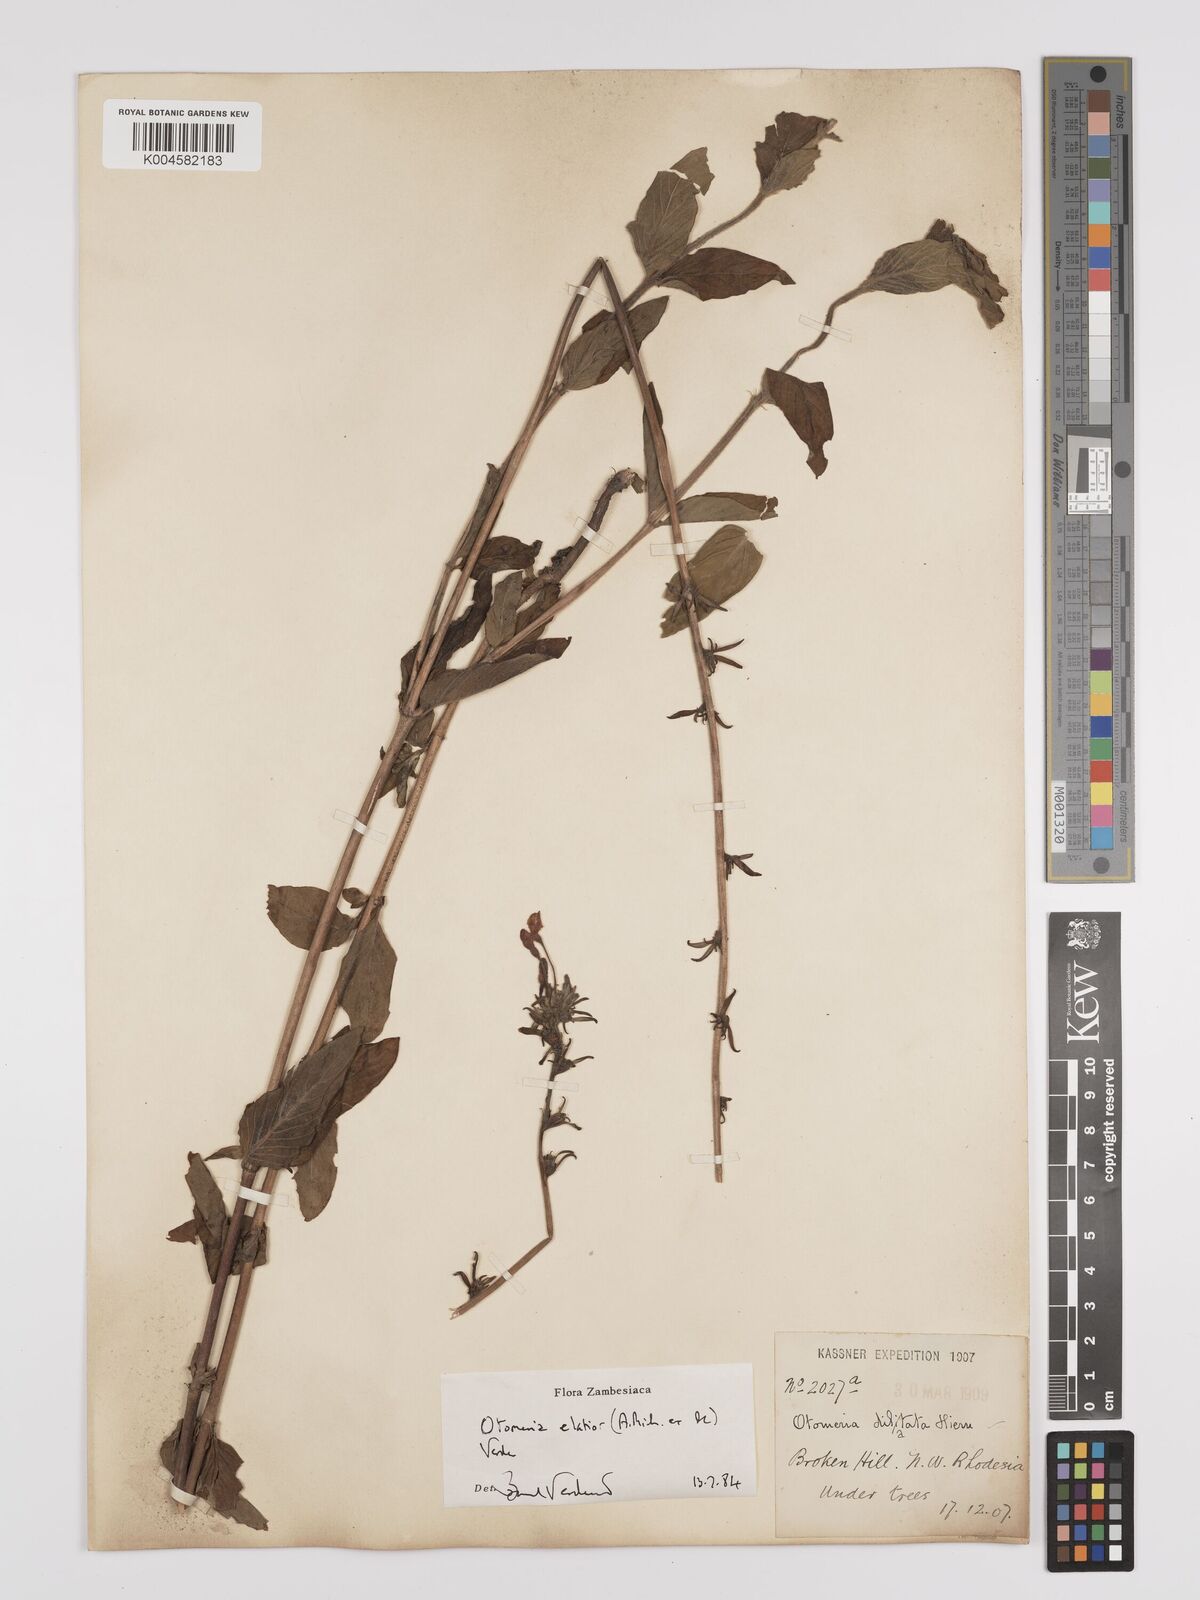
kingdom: Plantae
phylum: Tracheophyta
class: Magnoliopsida
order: Gentianales
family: Rubiaceae
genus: Otomeria
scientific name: Otomeria elatior
